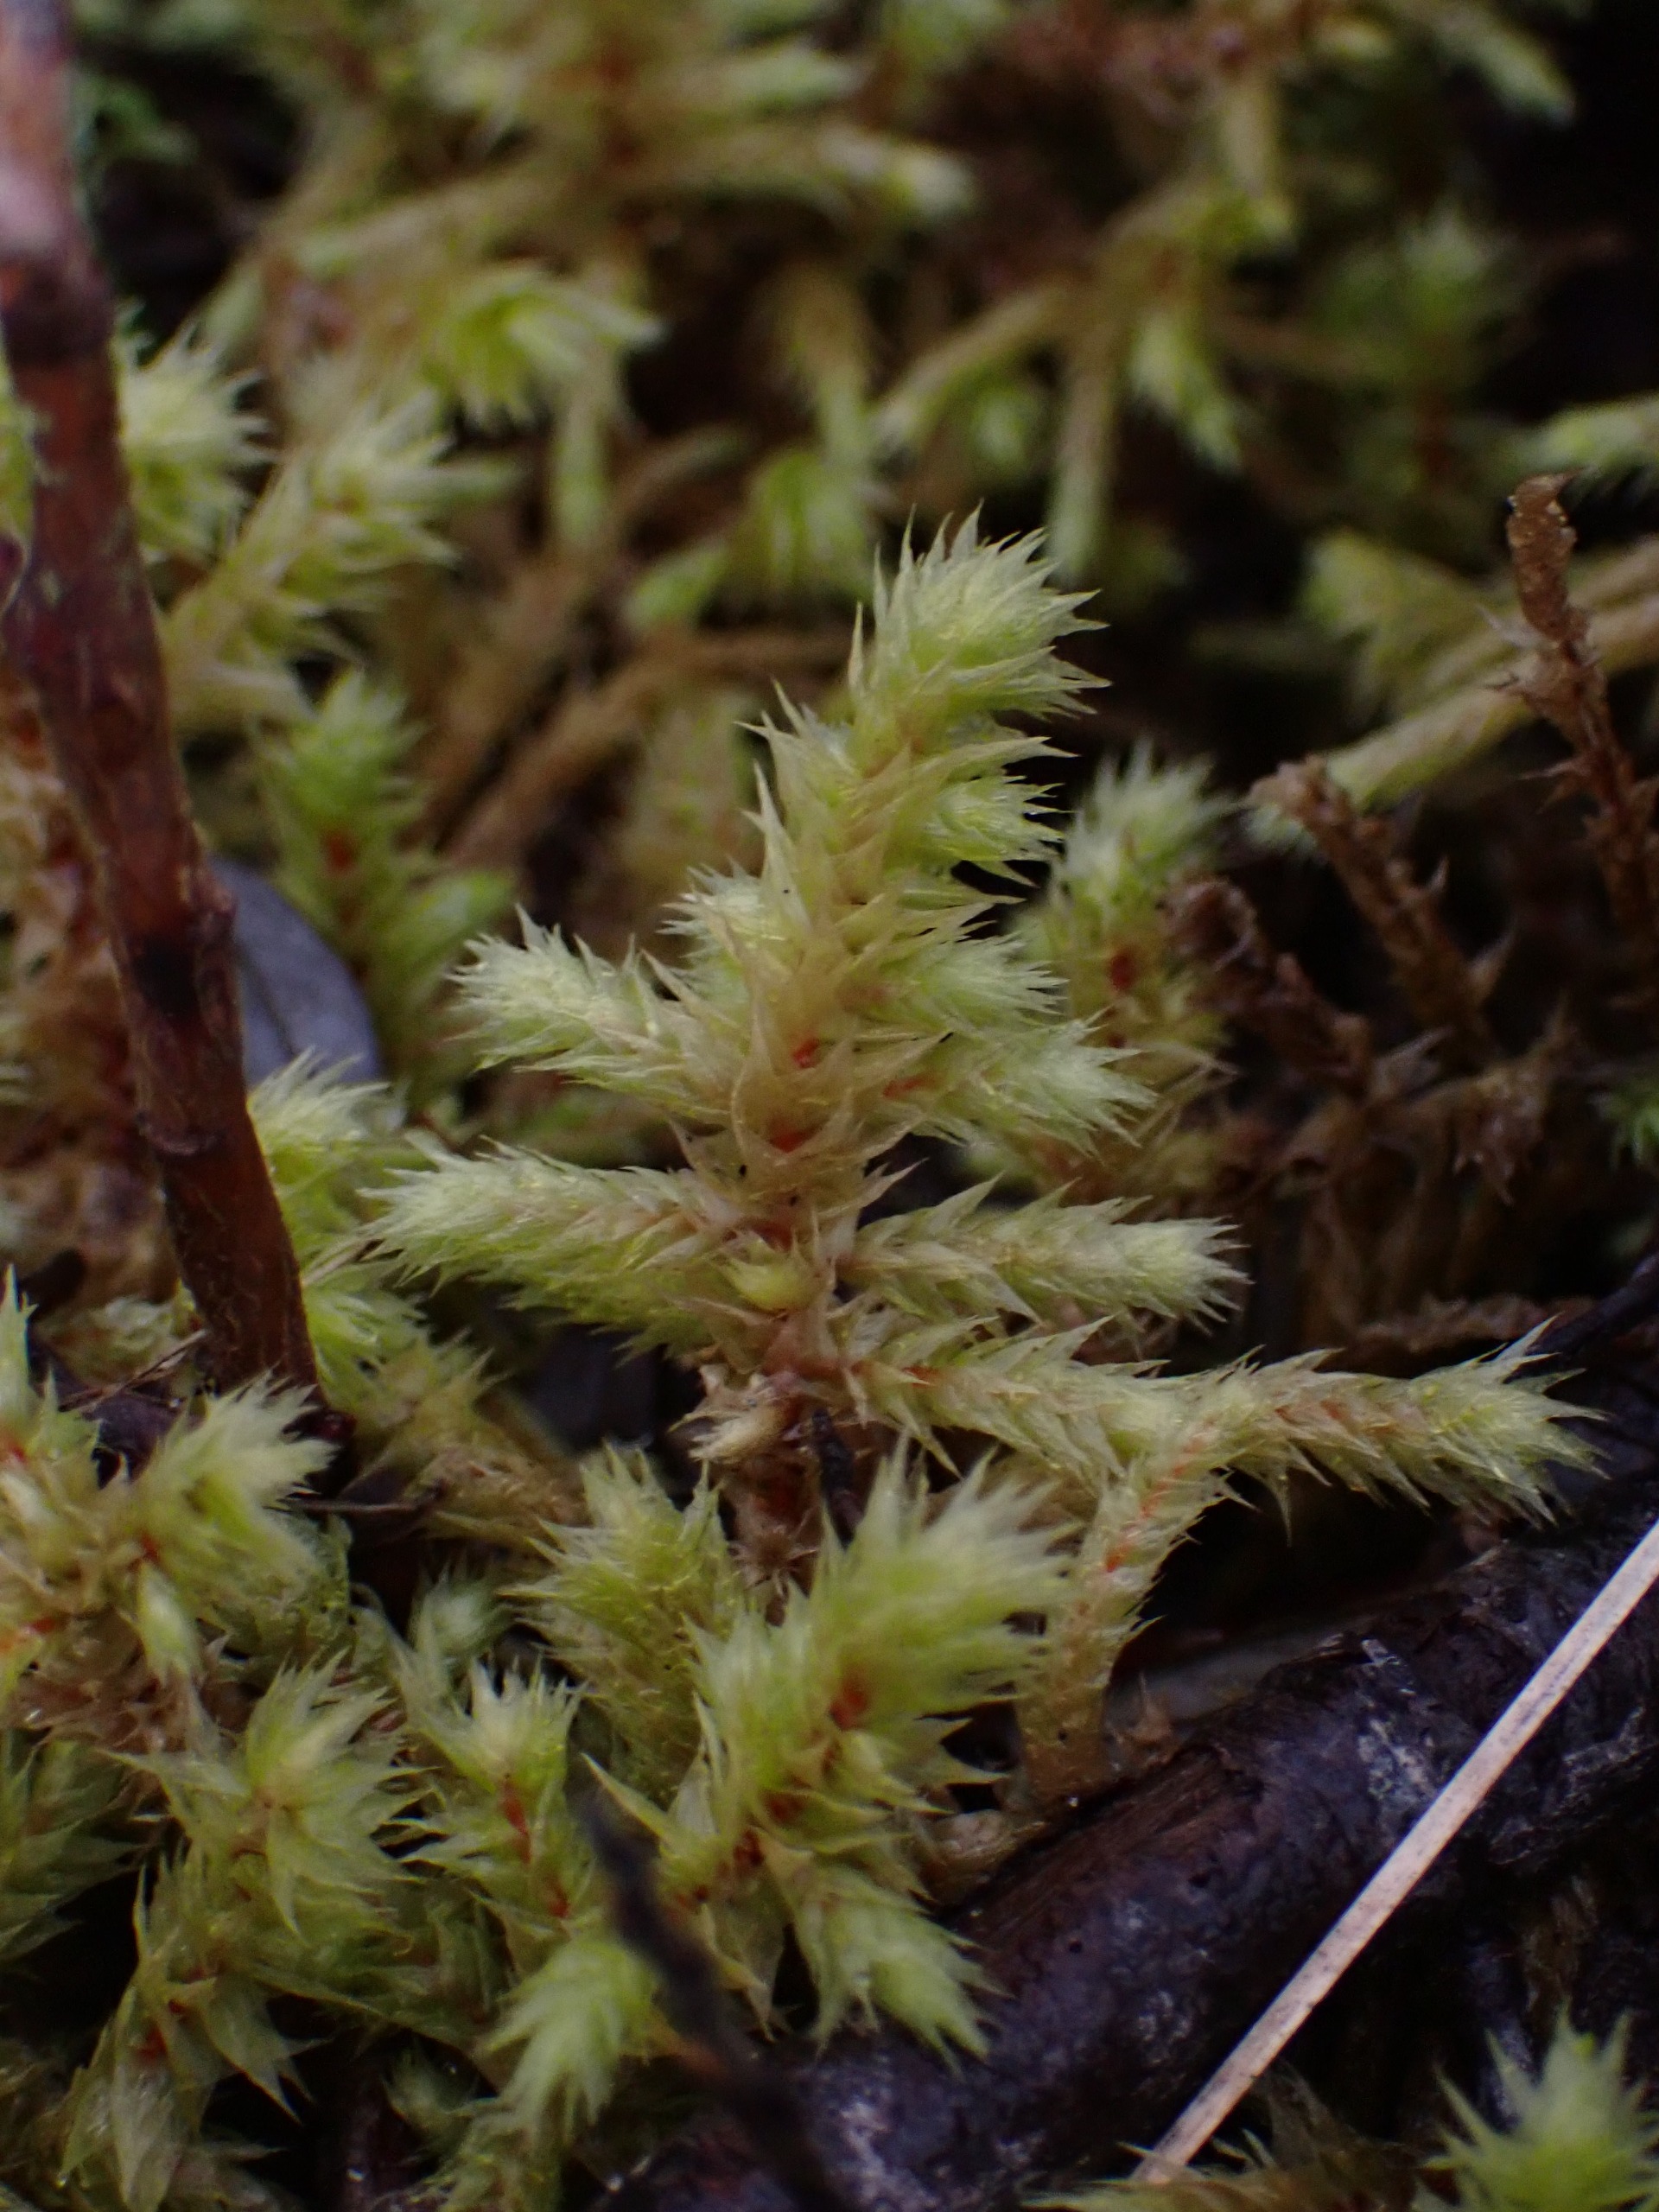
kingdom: Plantae
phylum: Bryophyta
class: Bryopsida
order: Hypnales
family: Hylocomiaceae
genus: Hylocomiadelphus
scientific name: Hylocomiadelphus triquetrus
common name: Stor kransemos
